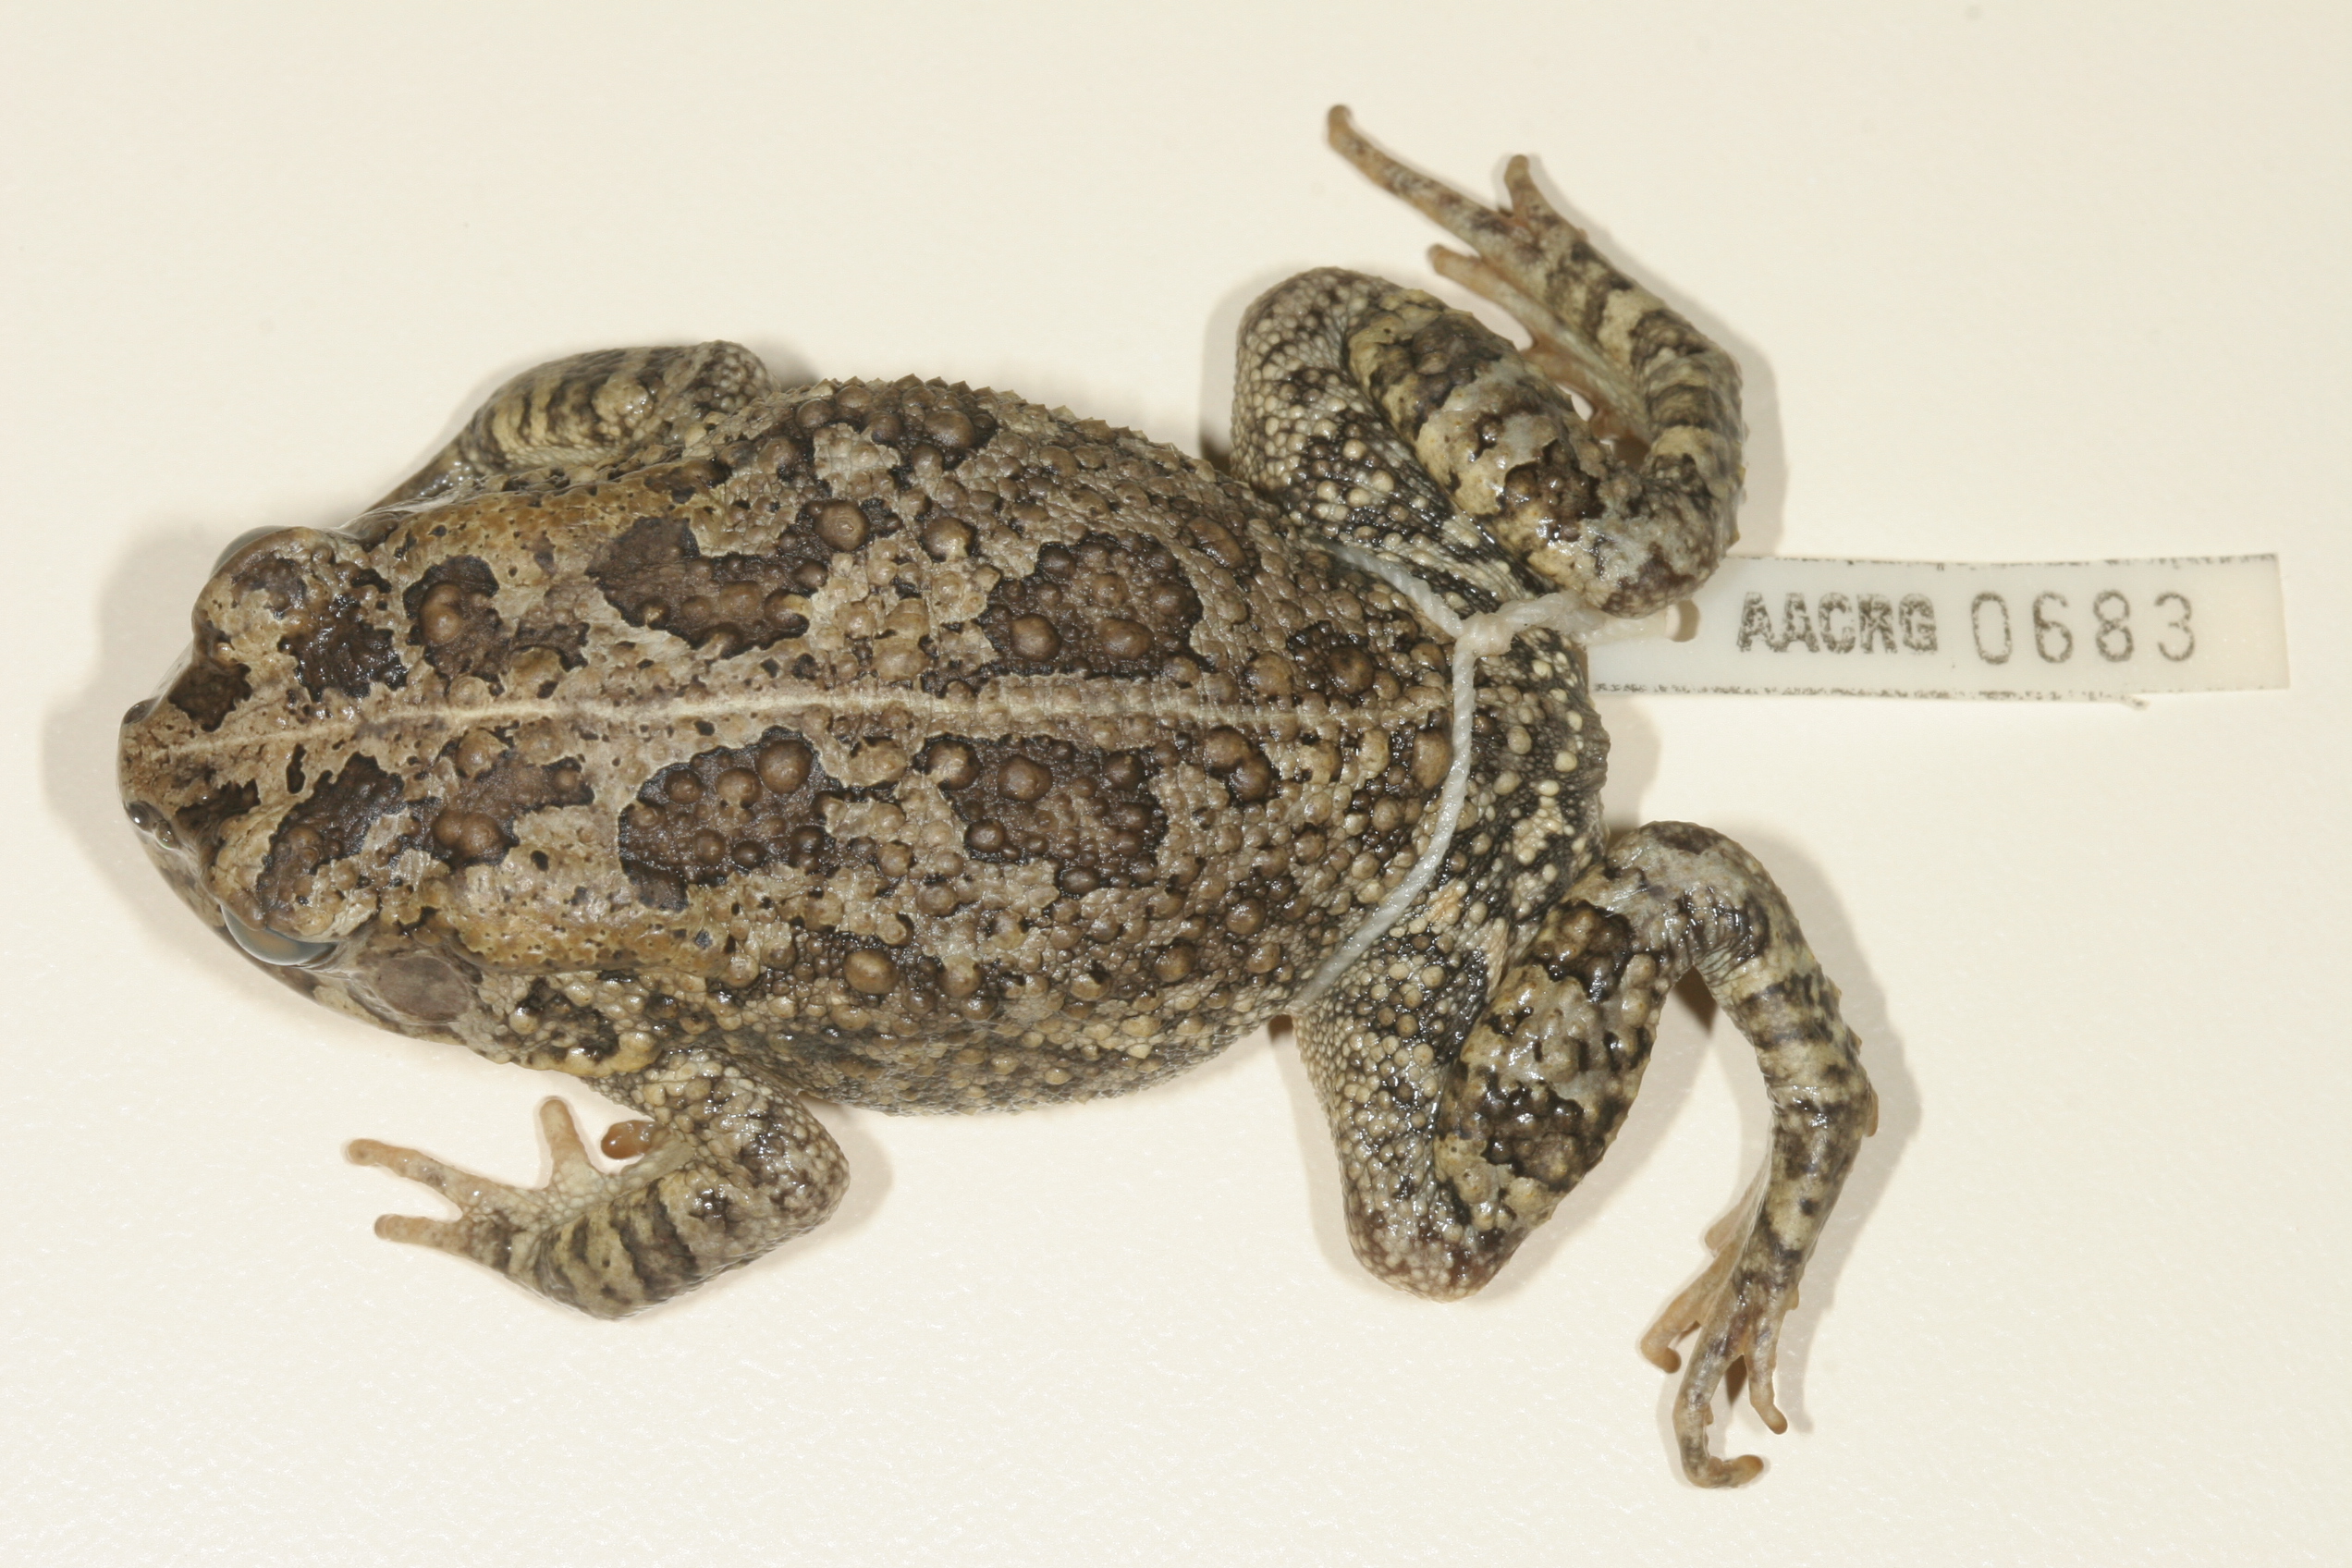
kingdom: Animalia
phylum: Chordata
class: Amphibia
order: Anura
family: Bufonidae
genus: Sclerophrys
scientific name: Sclerophrys gutturalis
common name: African common toad
